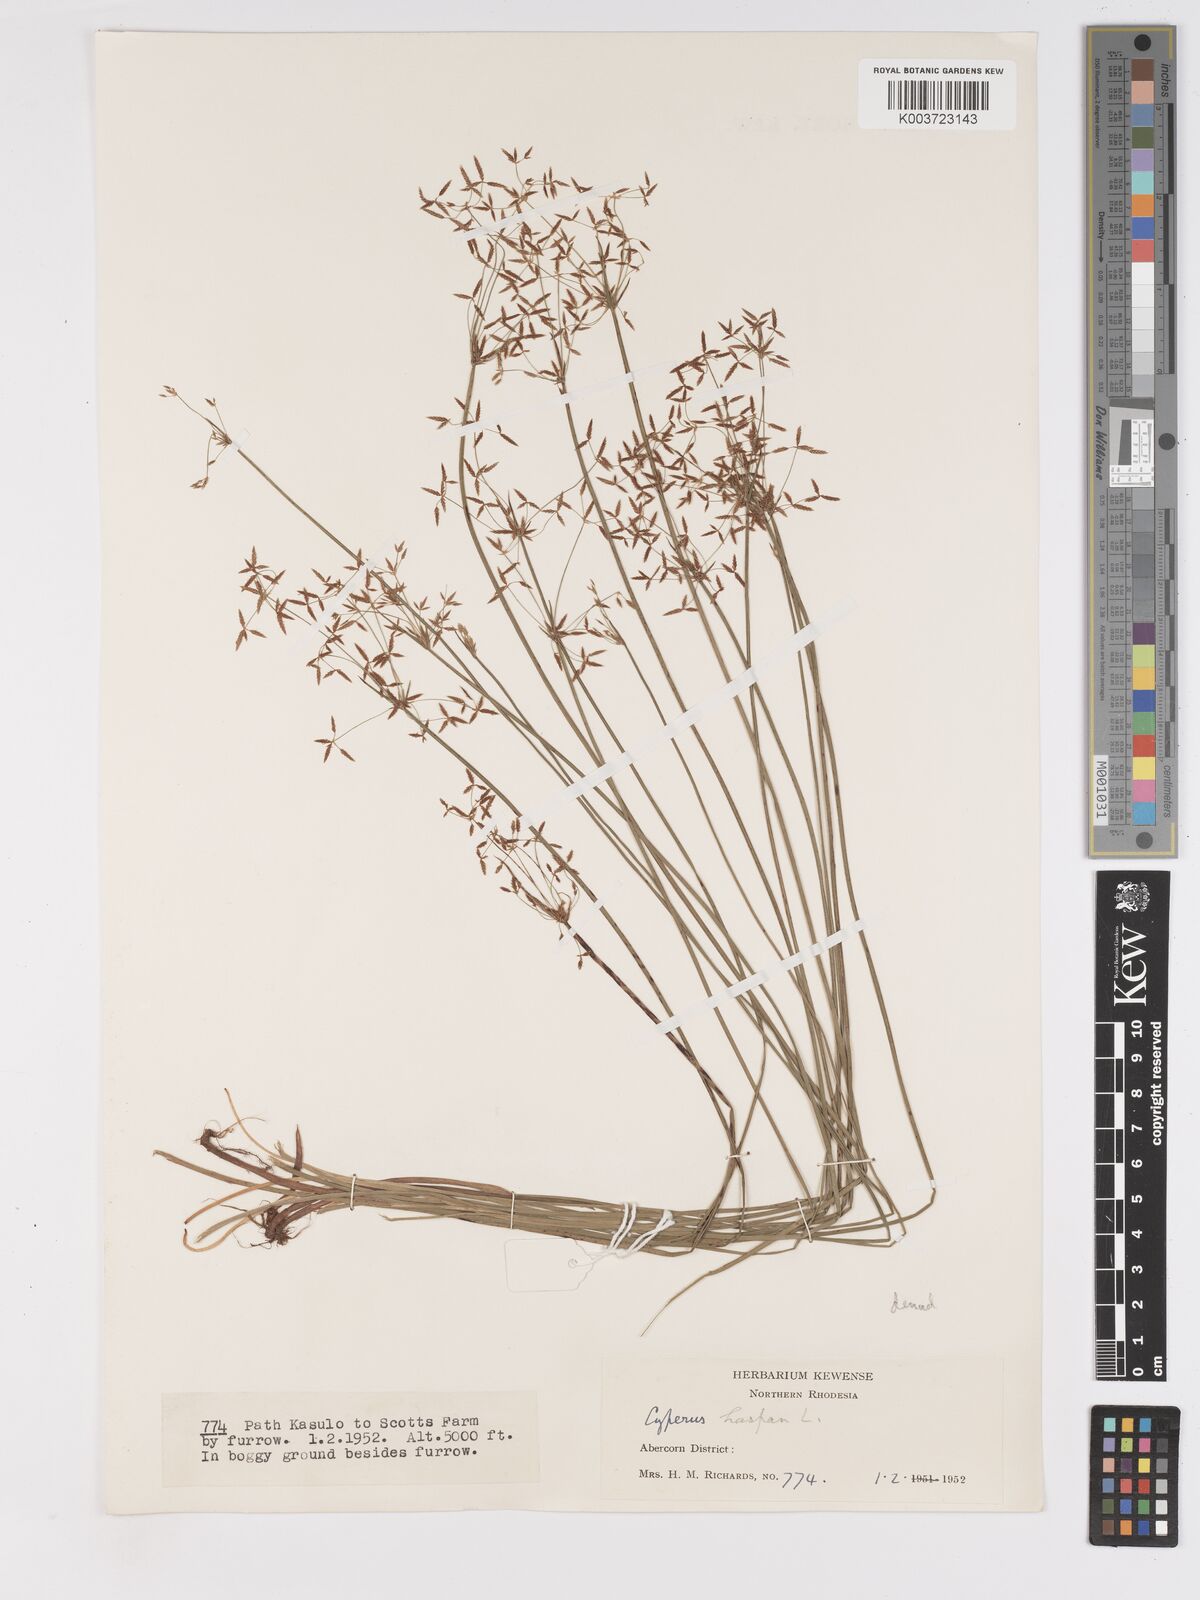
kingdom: Plantae
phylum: Tracheophyta
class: Liliopsida
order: Poales
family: Cyperaceae
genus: Cyperus
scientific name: Cyperus haspan
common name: Haspan flatsedge
